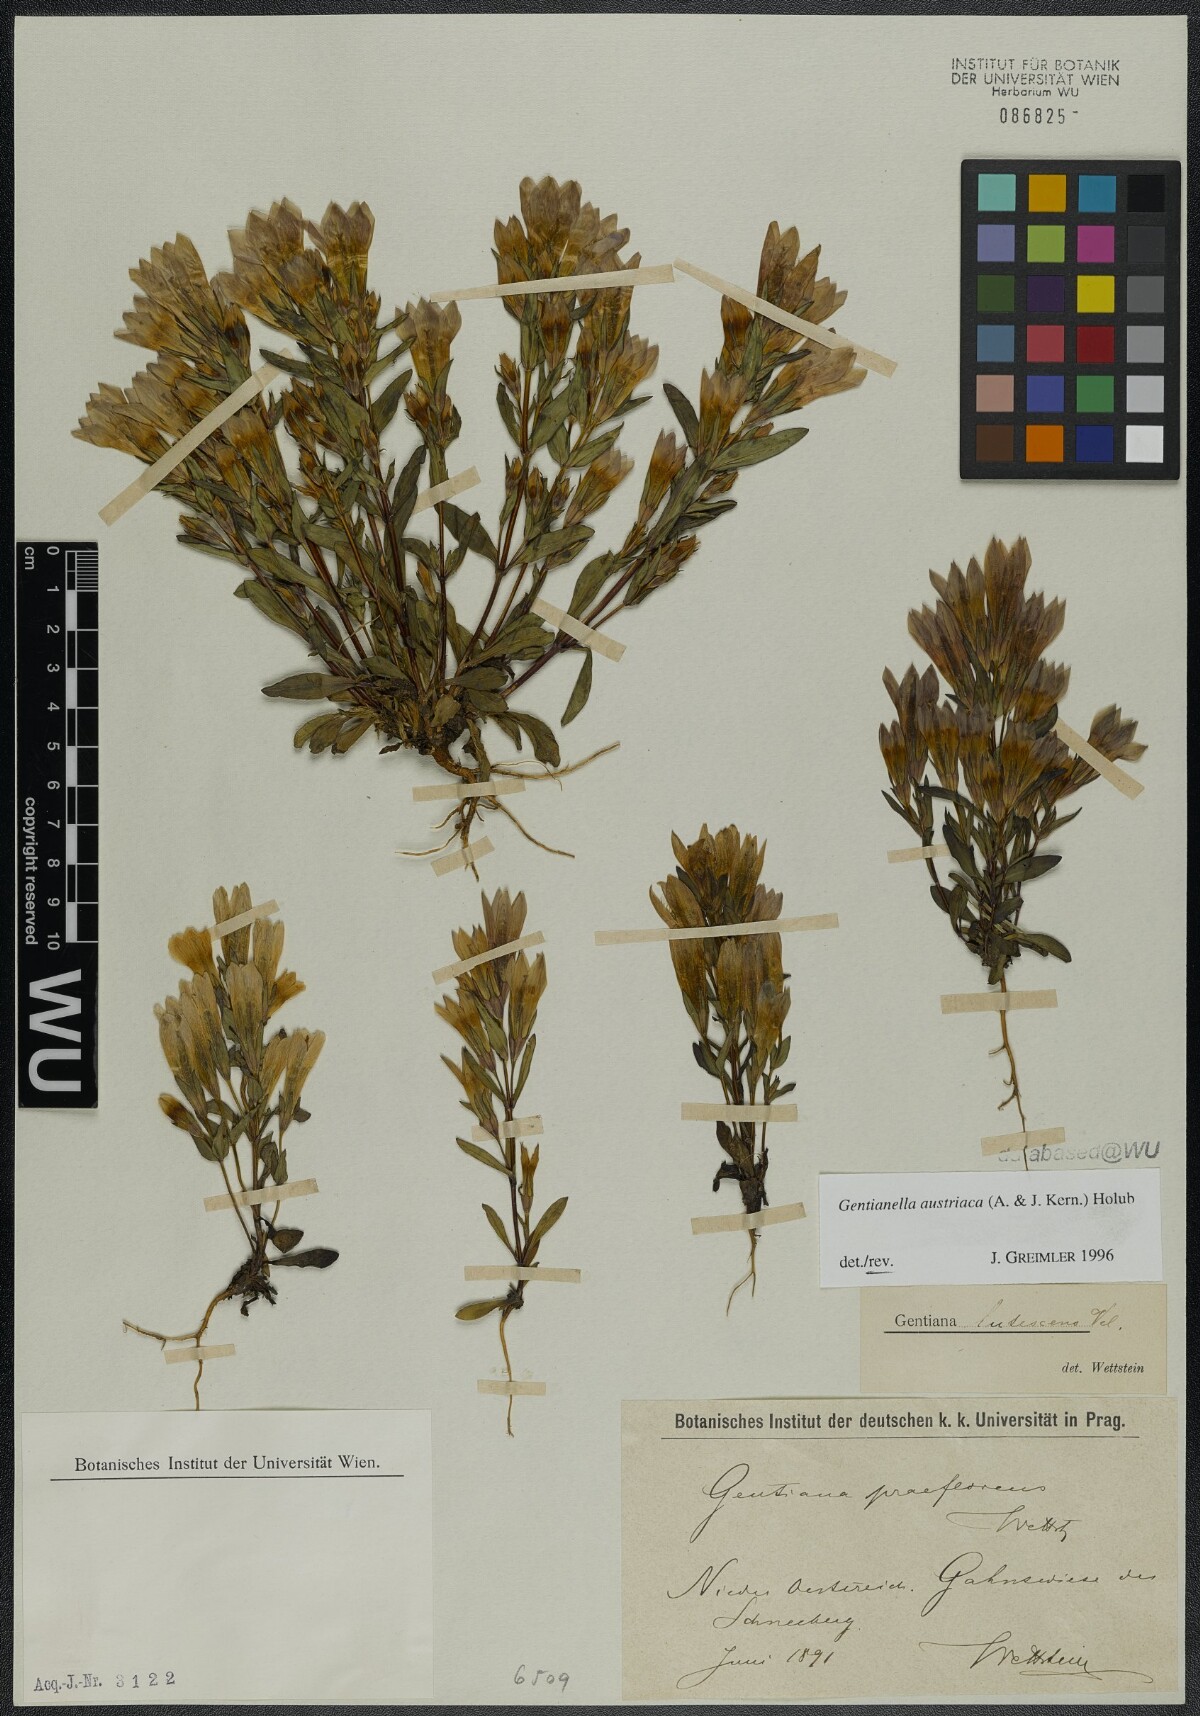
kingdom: Plantae
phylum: Tracheophyta
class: Magnoliopsida
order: Gentianales
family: Gentianaceae
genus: Gentianella
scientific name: Gentianella austriaca
